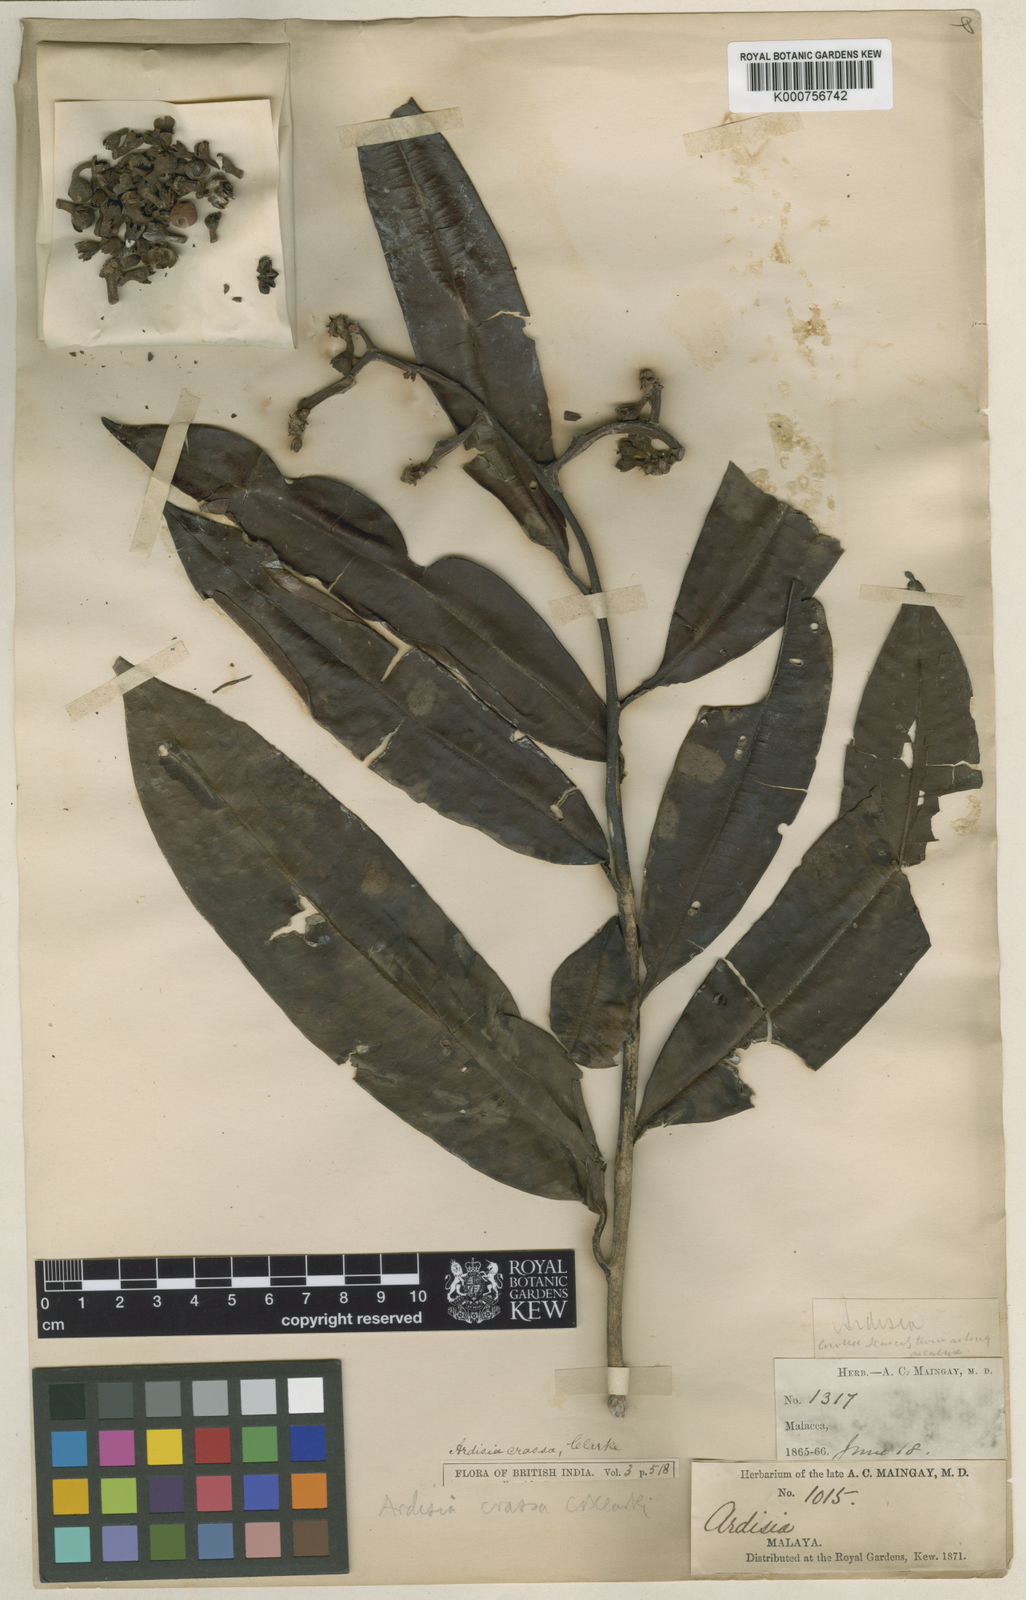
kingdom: Plantae
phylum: Tracheophyta
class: Magnoliopsida
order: Ericales
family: Primulaceae
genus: Ardisia
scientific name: Ardisia crassa
